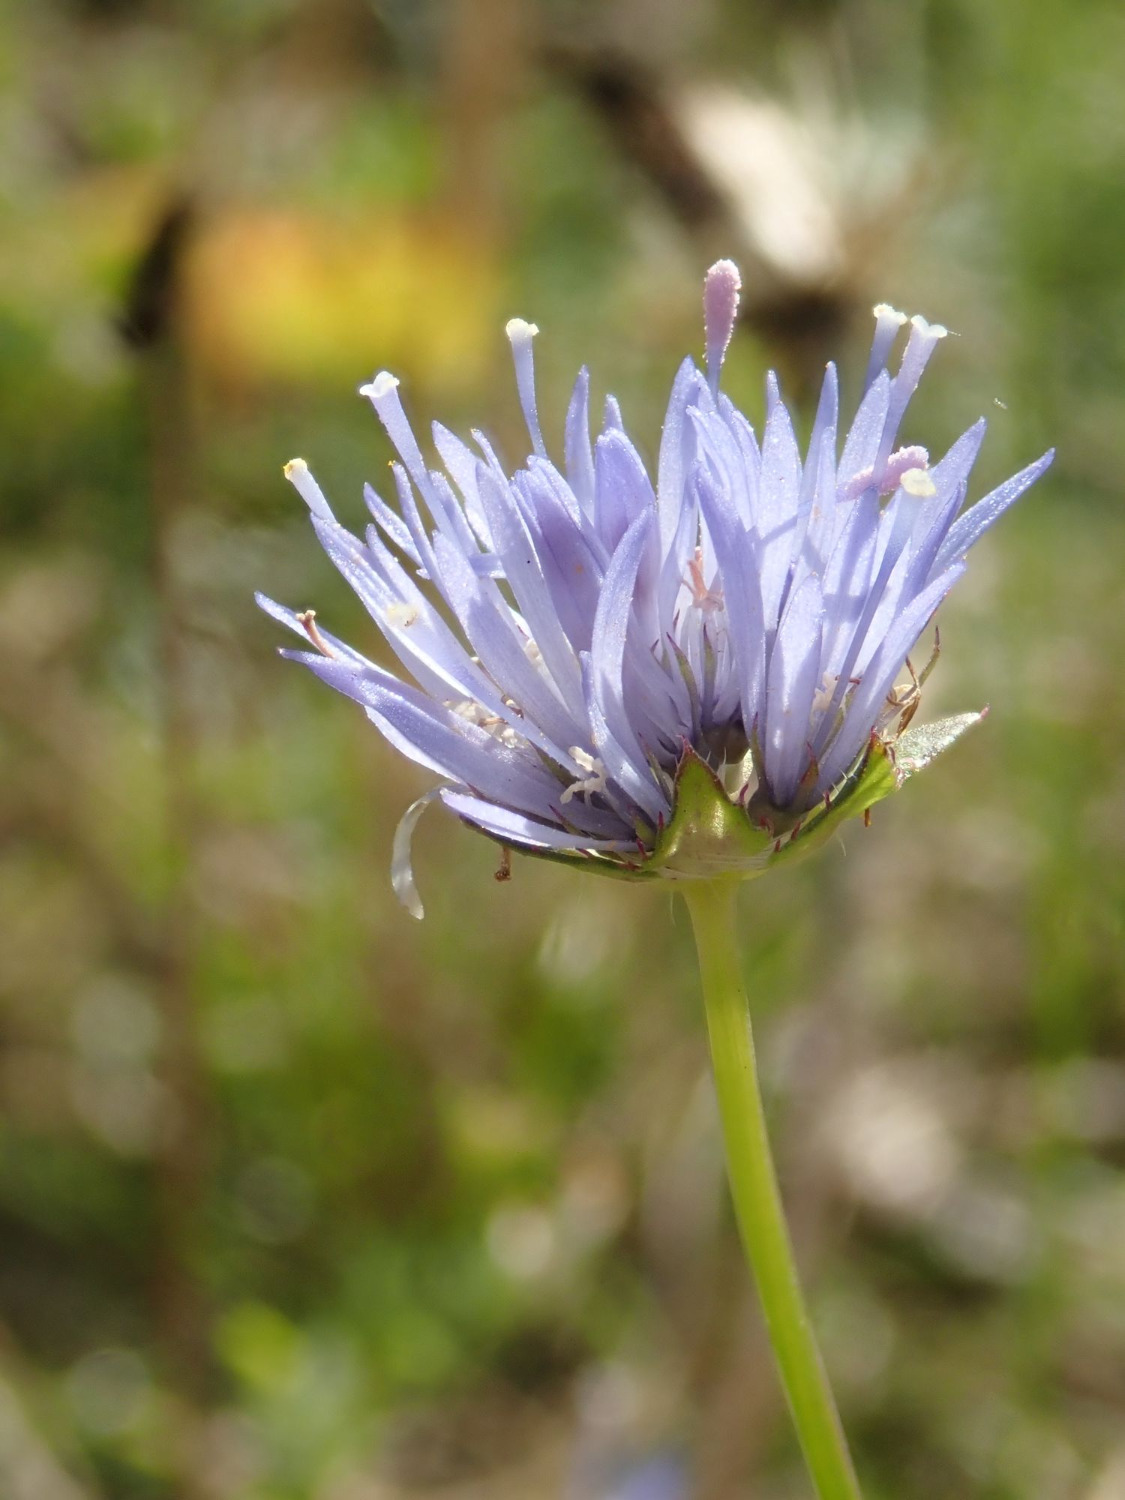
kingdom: Plantae
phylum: Tracheophyta
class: Magnoliopsida
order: Asterales
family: Campanulaceae
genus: Jasione
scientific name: Jasione montana
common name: Blåmunke
